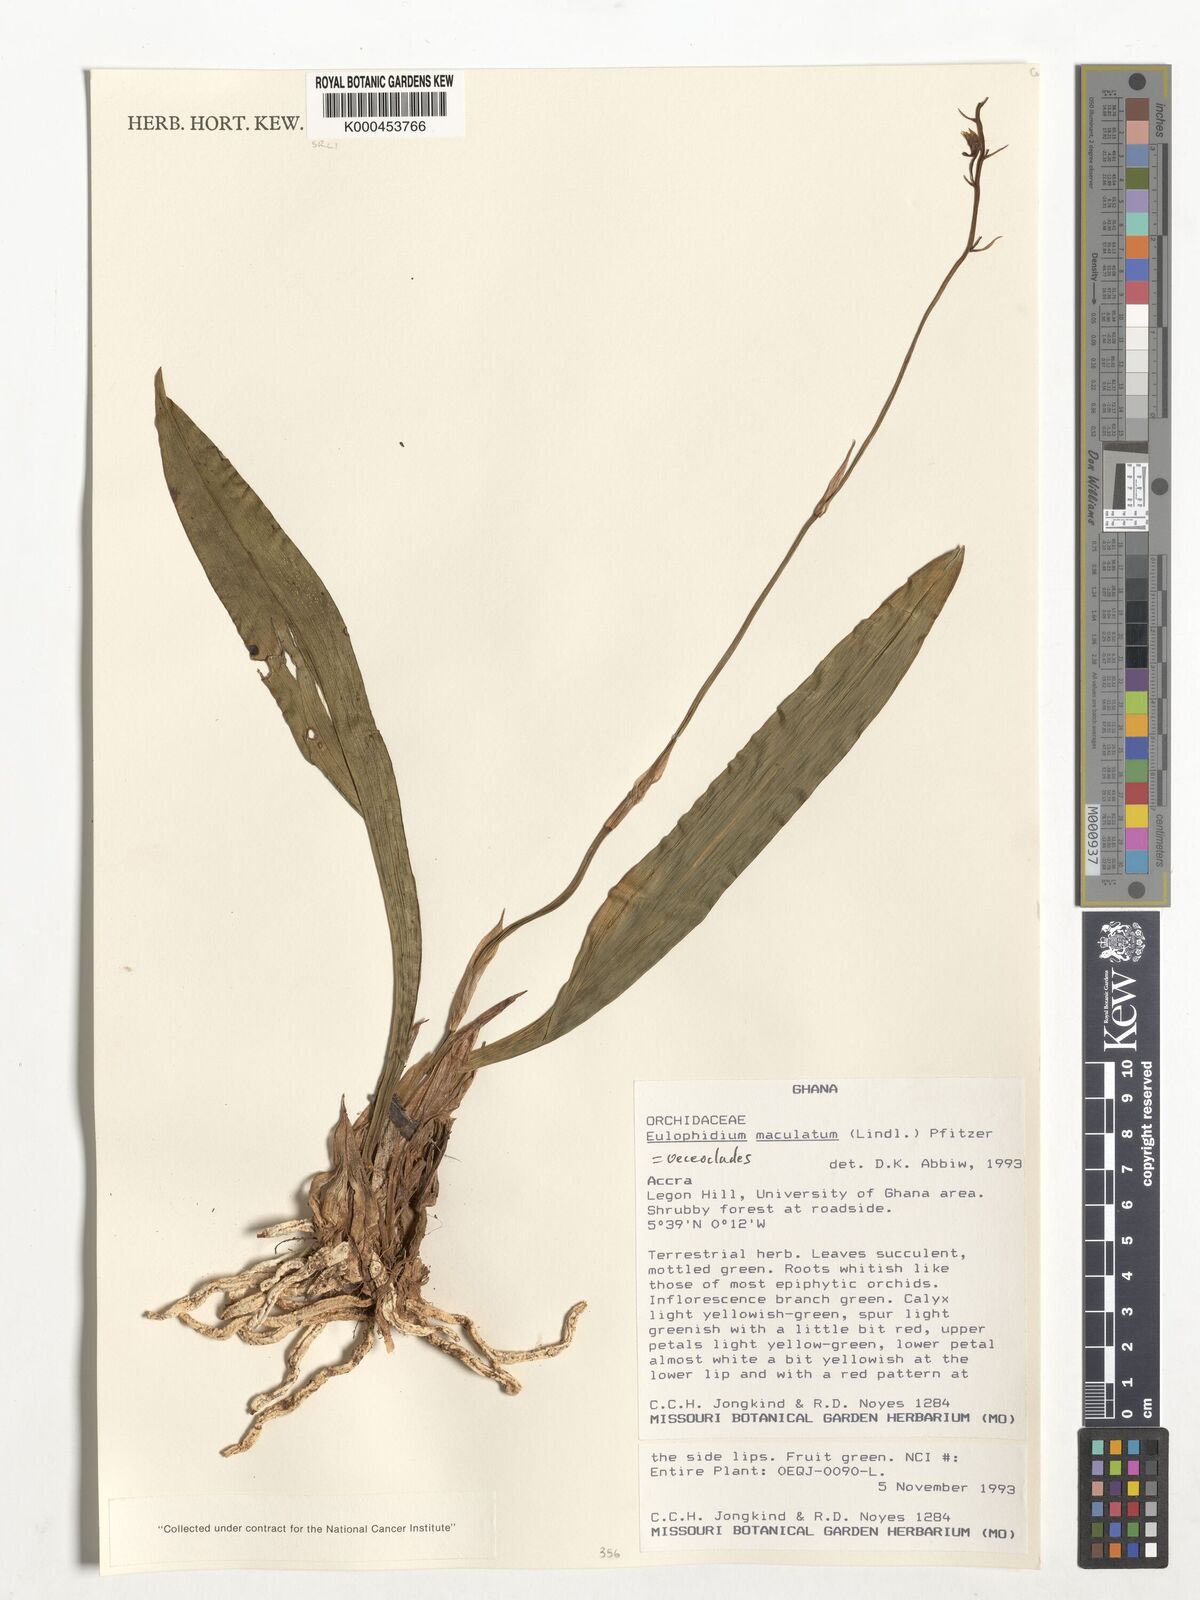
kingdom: Plantae
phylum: Tracheophyta
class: Liliopsida
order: Asparagales
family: Orchidaceae
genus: Eulophia
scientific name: Eulophia maculata
